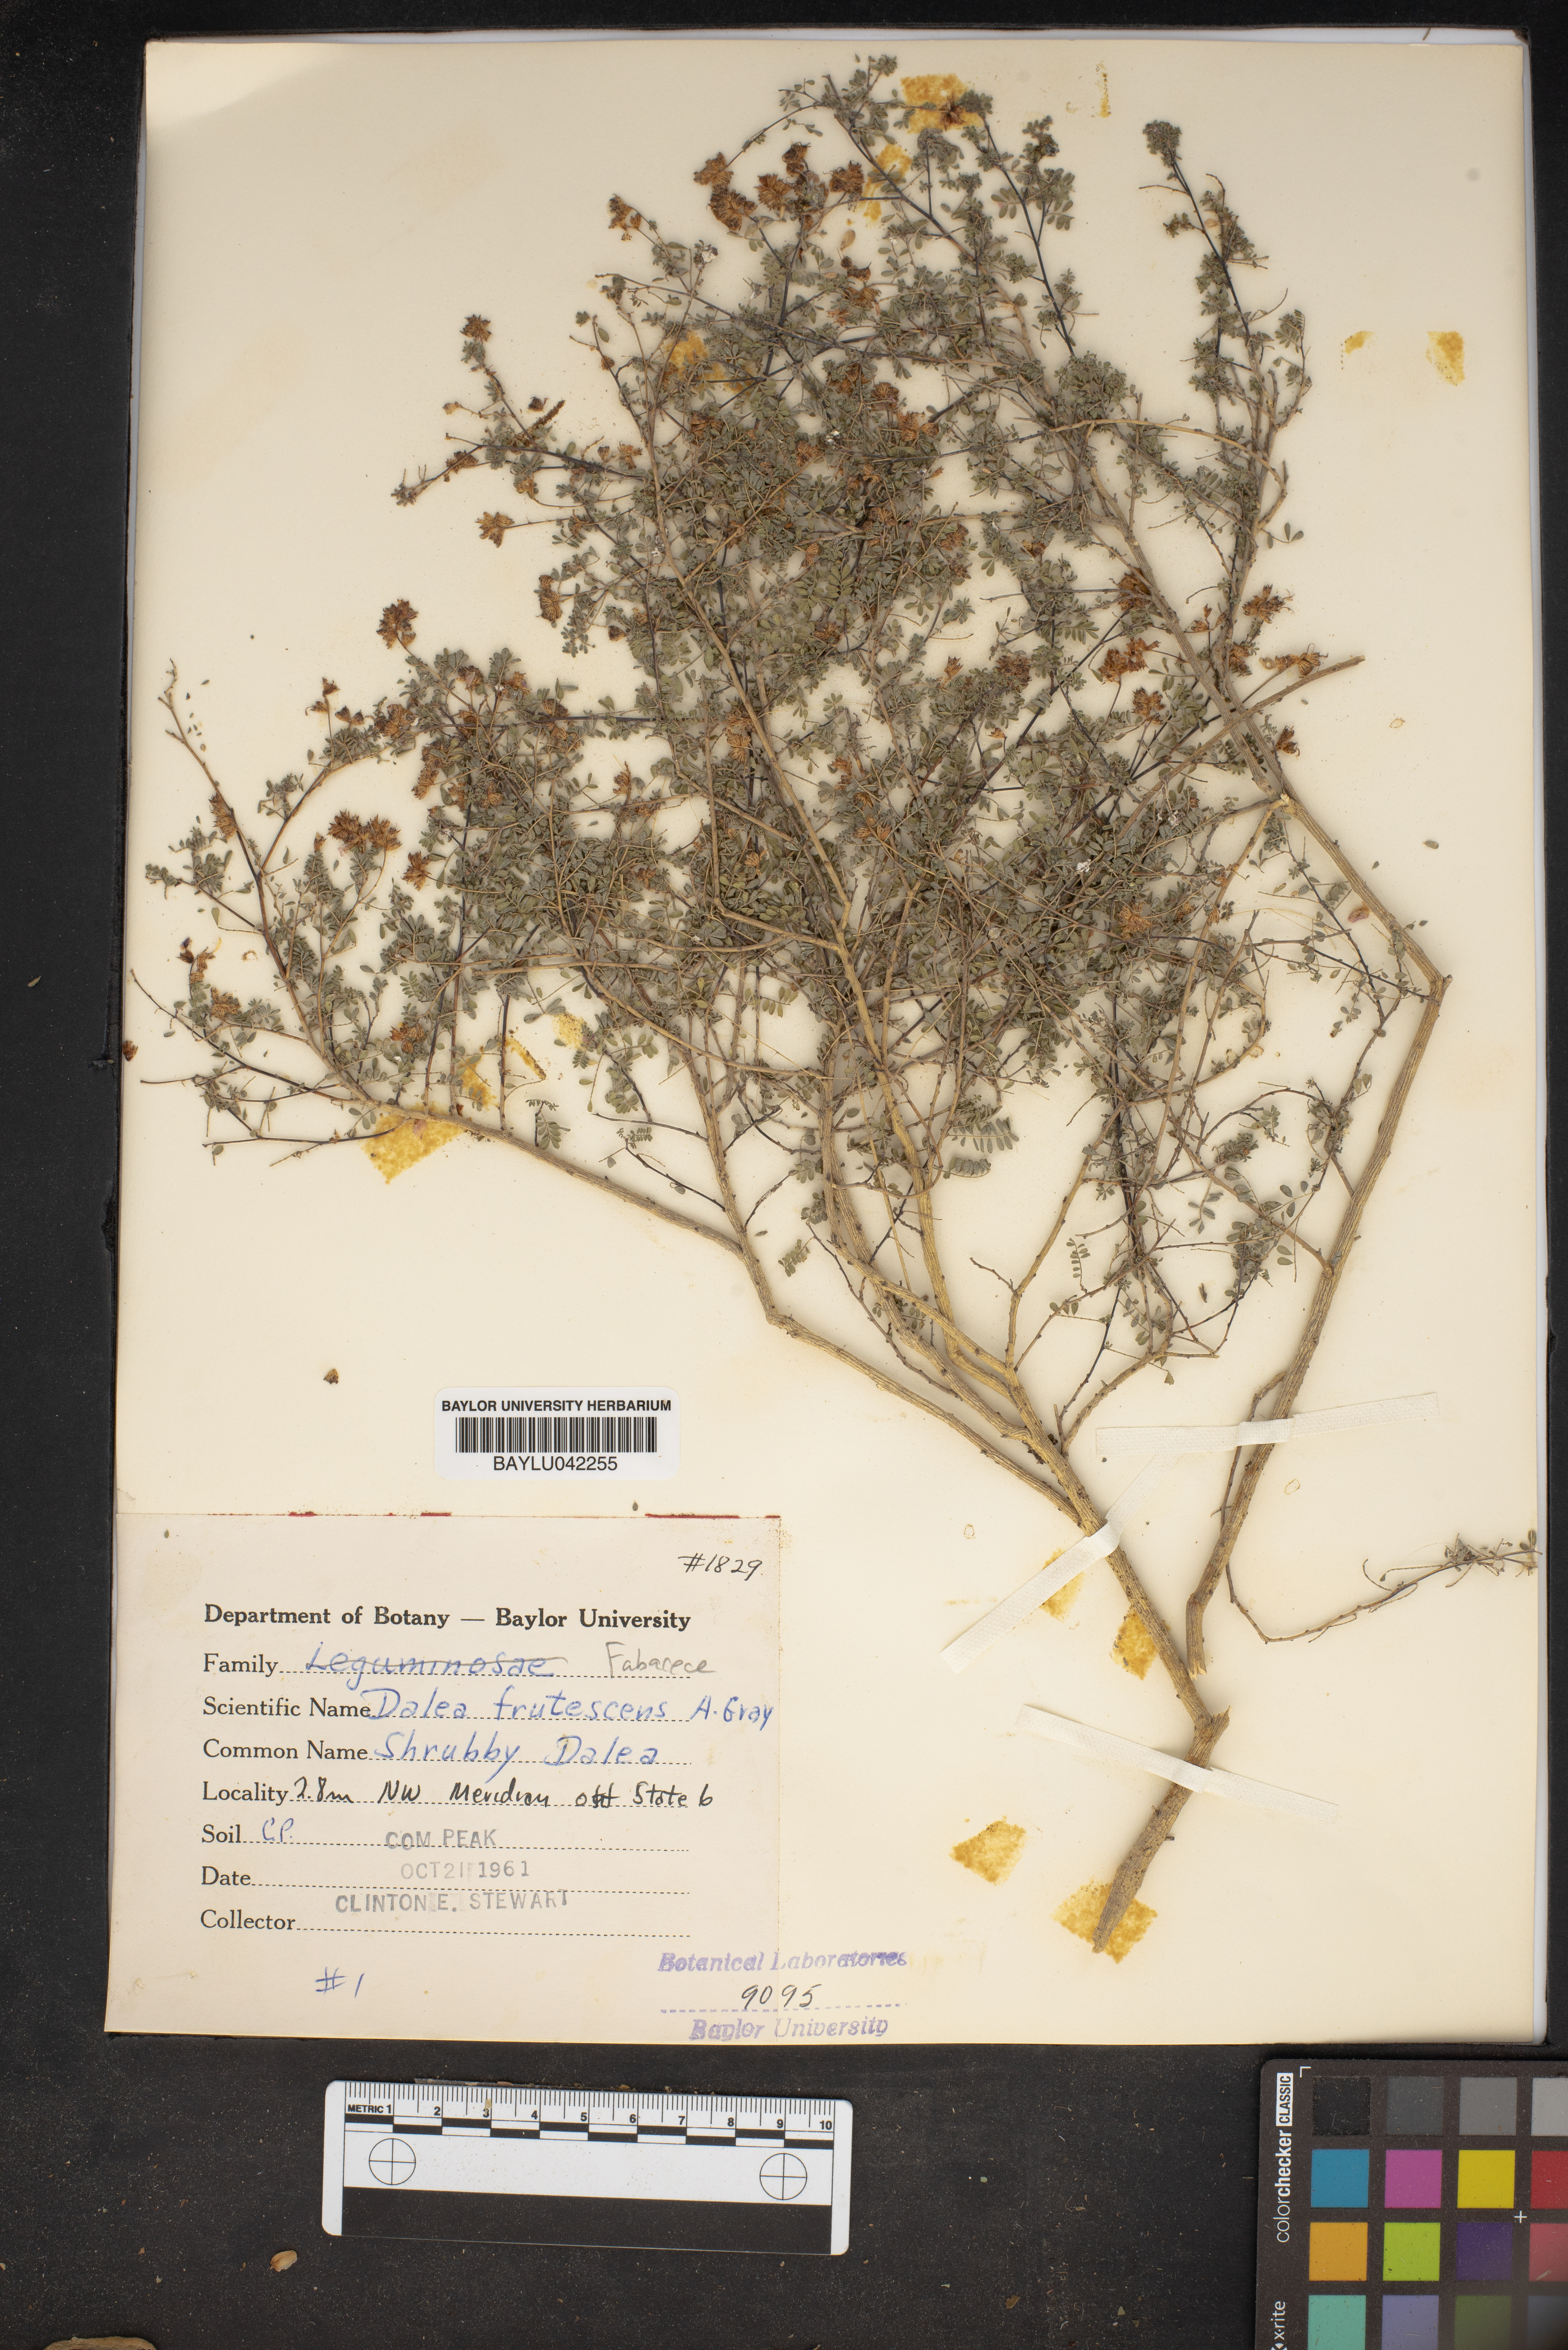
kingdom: Plantae
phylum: Tracheophyta
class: Magnoliopsida
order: Fabales
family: Fabaceae
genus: Dalea
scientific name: Dalea frutescens
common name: Black dalea
